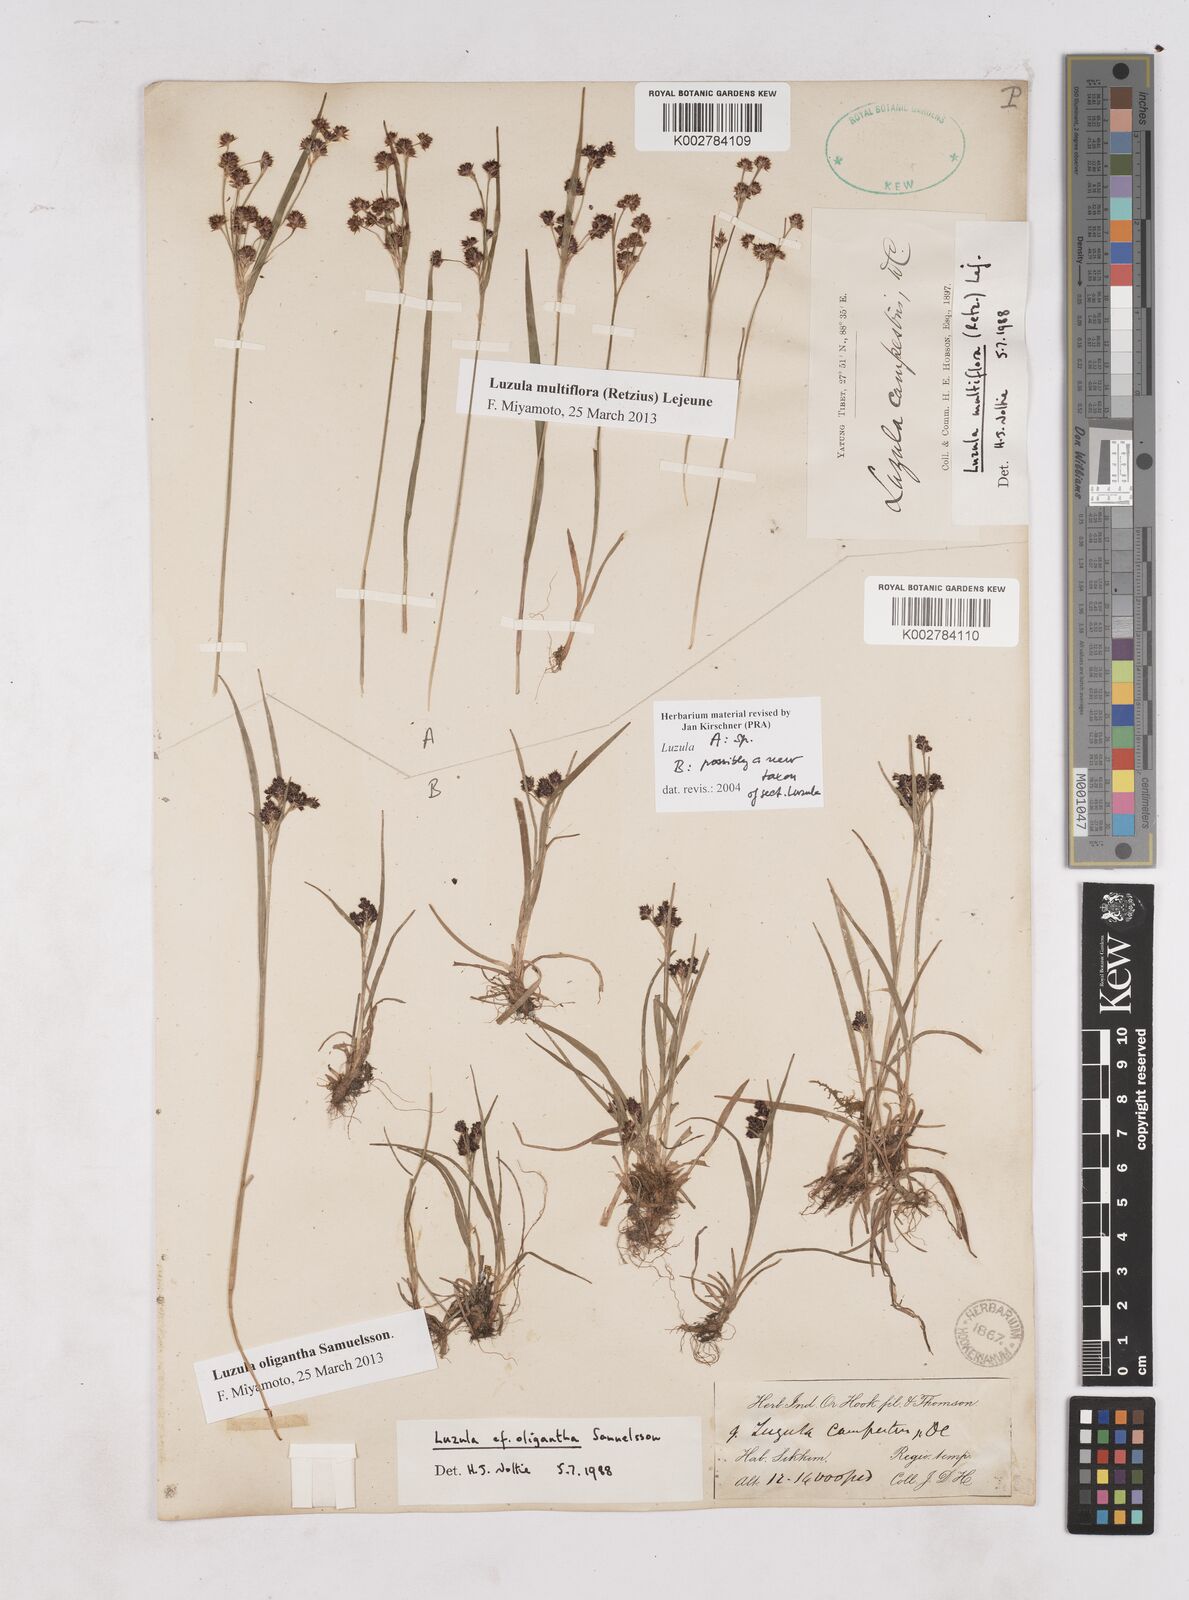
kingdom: Plantae
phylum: Tracheophyta
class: Liliopsida
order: Poales
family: Juncaceae
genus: Luzula
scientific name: Luzula
